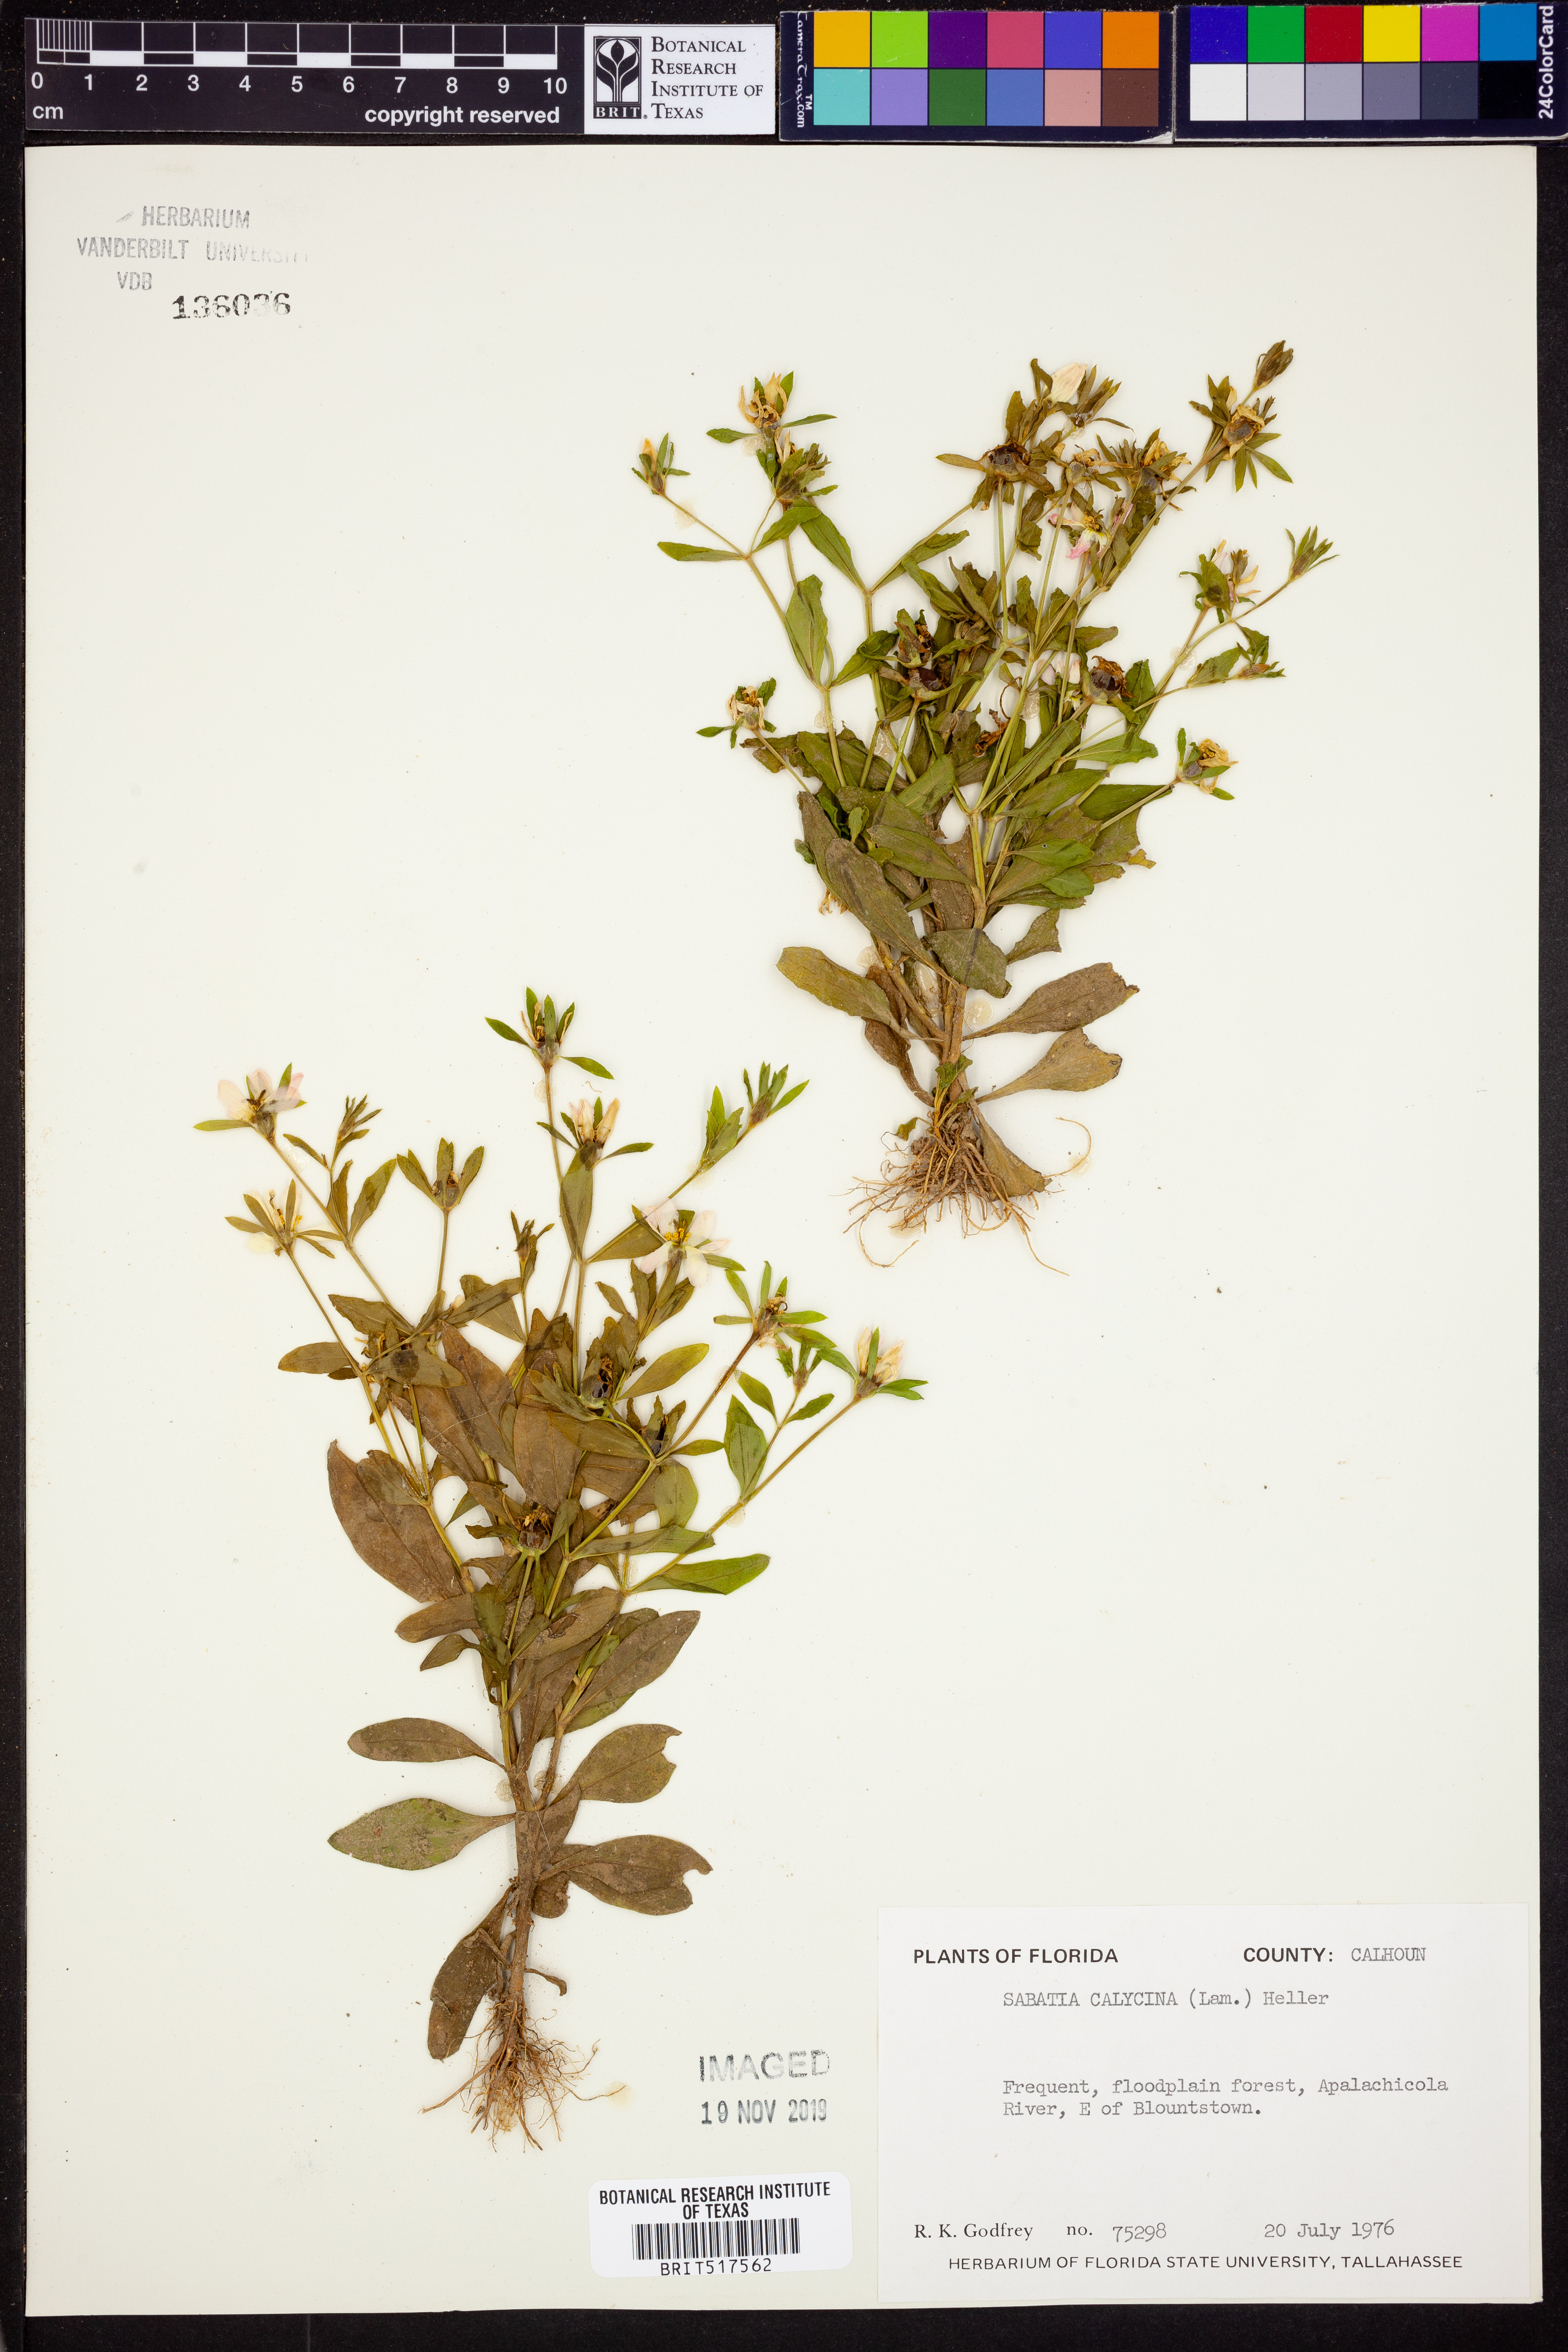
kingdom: Plantae
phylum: Tracheophyta
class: Magnoliopsida
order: Gentianales
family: Gentianaceae
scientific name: Gentianaceae
